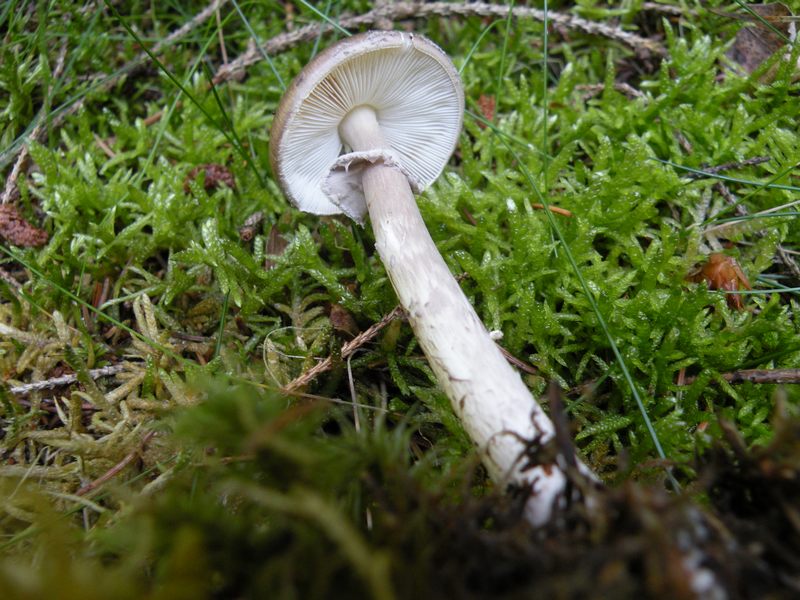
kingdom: Fungi
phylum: Basidiomycota
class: Agaricomycetes
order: Agaricales
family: Amanitaceae
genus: Amanita
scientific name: Amanita porphyria
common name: porfyr-fluesvamp
